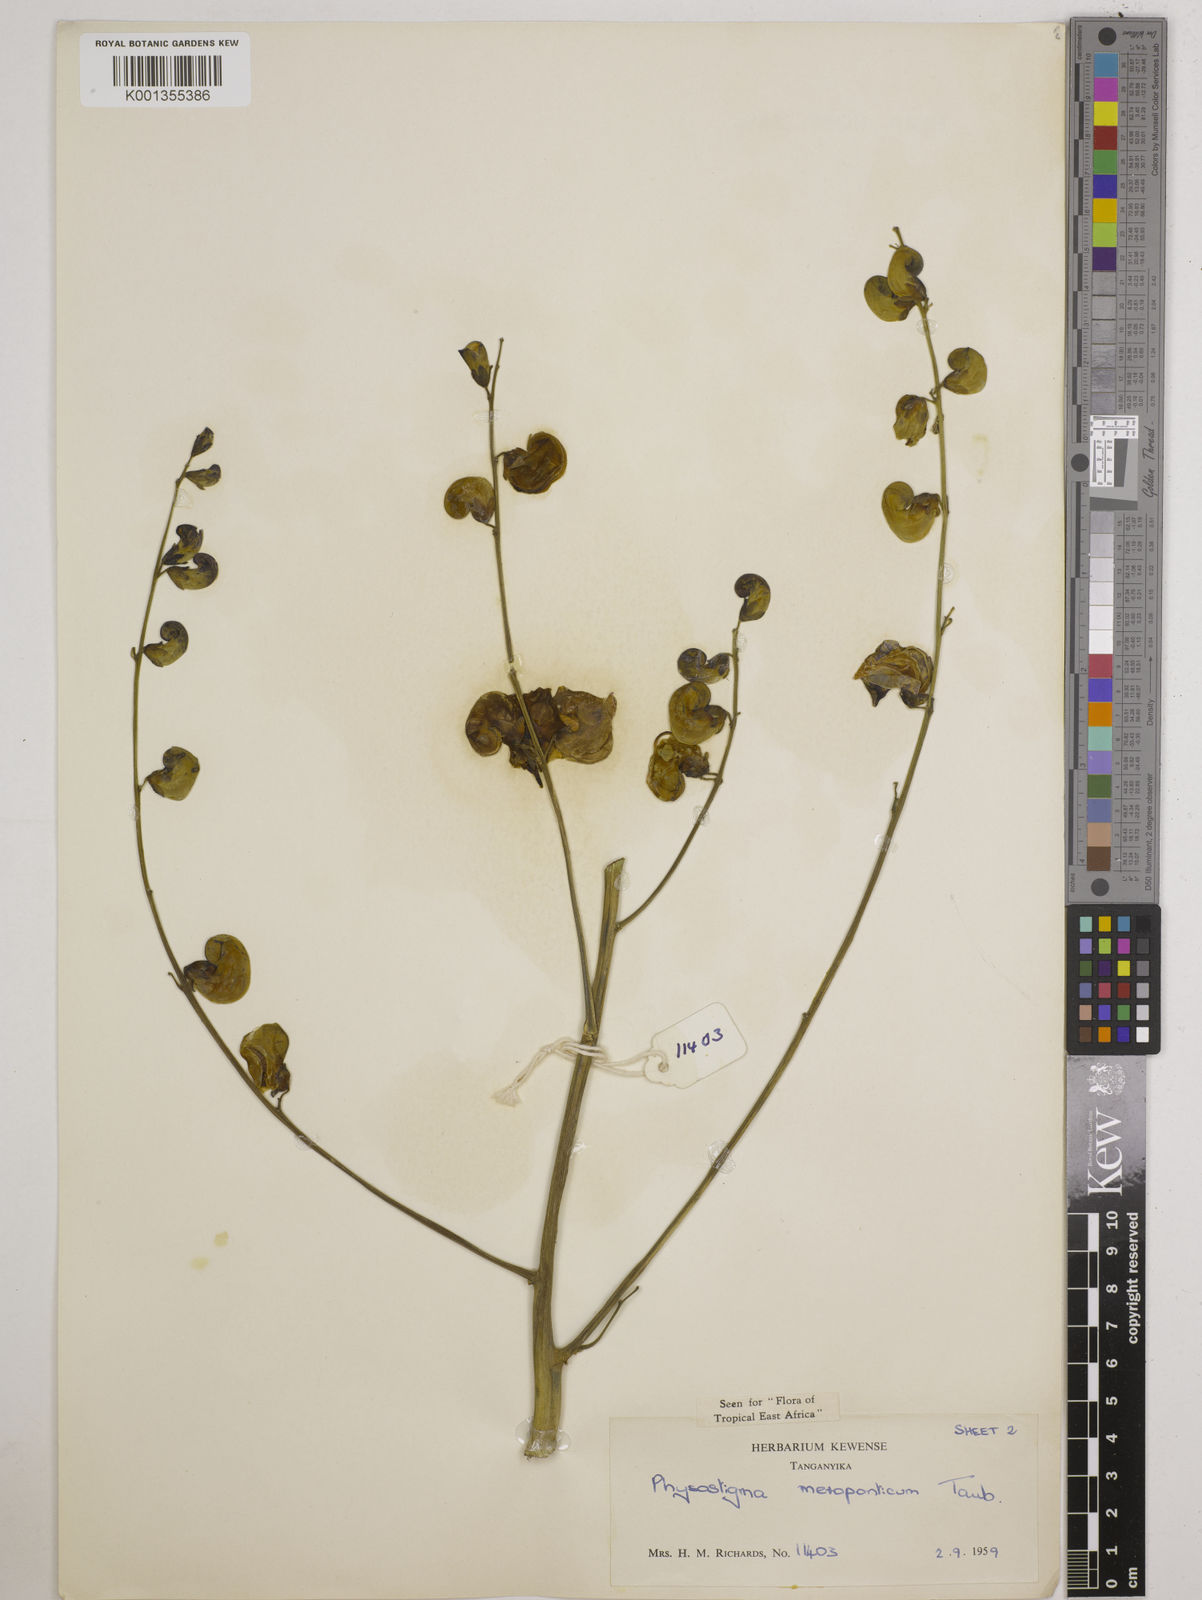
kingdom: Plantae
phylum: Tracheophyta
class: Magnoliopsida
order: Fabales
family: Fabaceae
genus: Physostigma
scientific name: Physostigma mesoponticum
